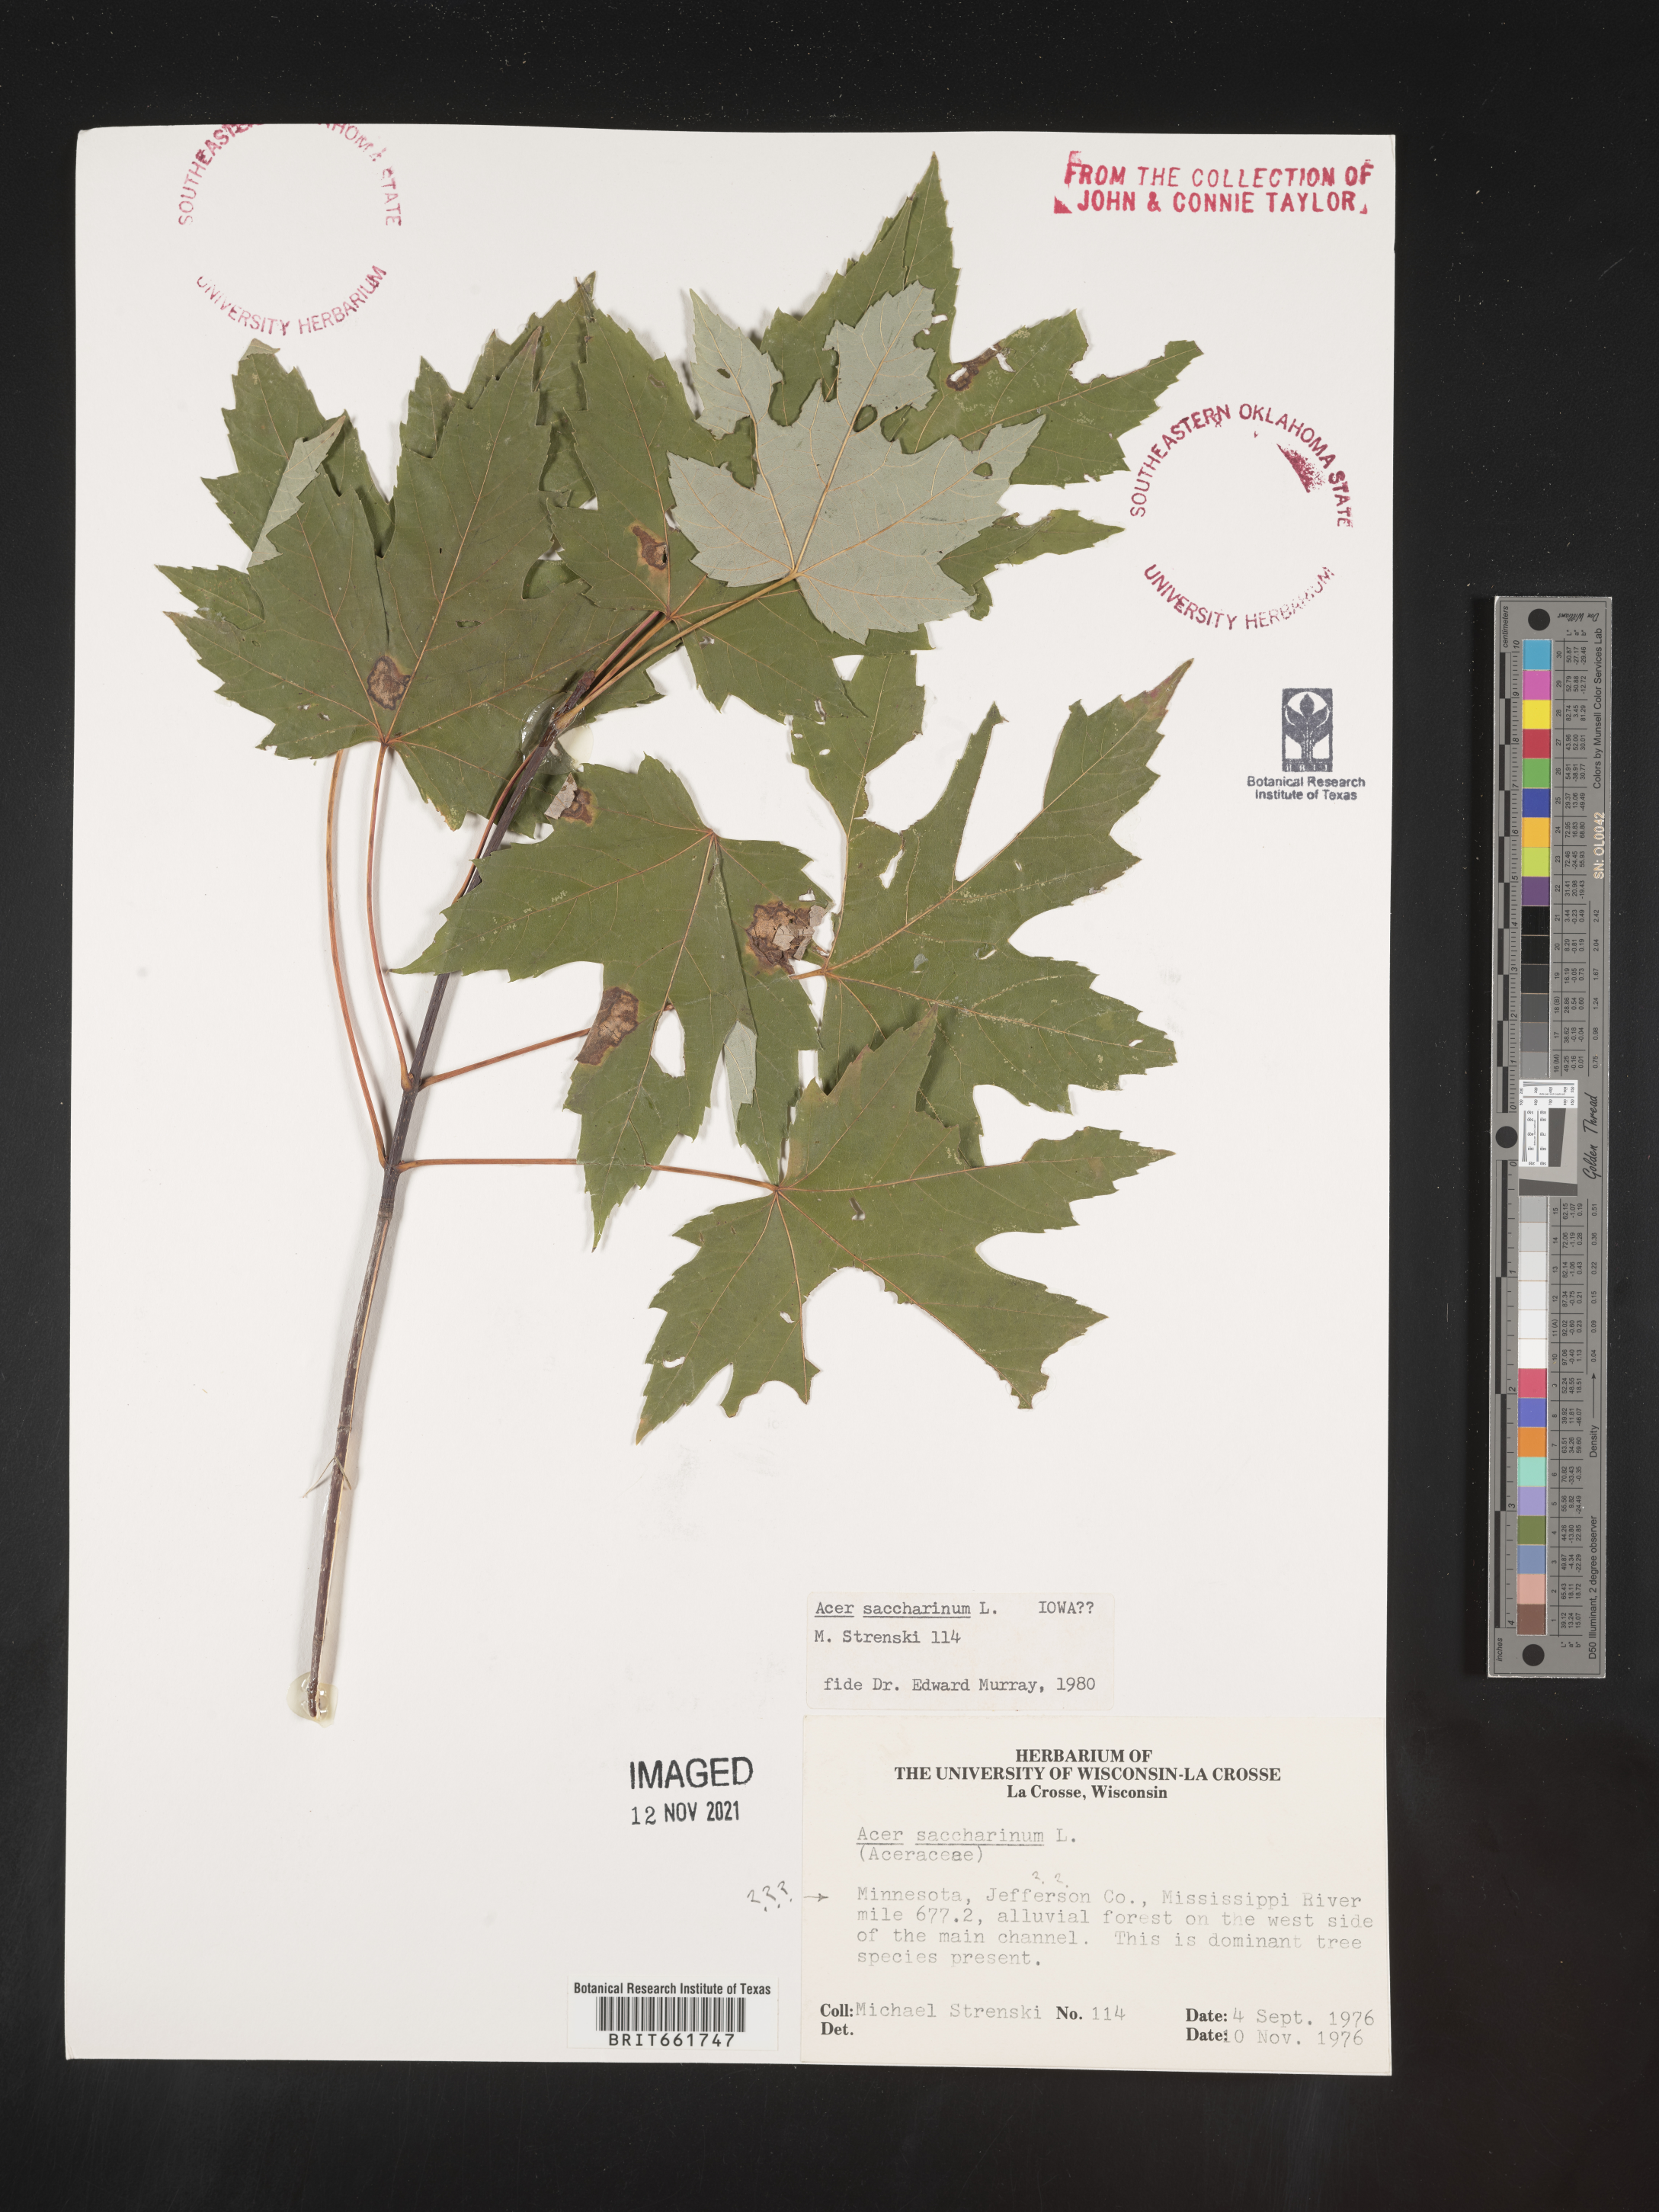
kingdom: Plantae
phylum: Tracheophyta
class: Magnoliopsida
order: Sapindales
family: Sapindaceae
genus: Acer
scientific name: Acer saccharinum
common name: Silver maple
